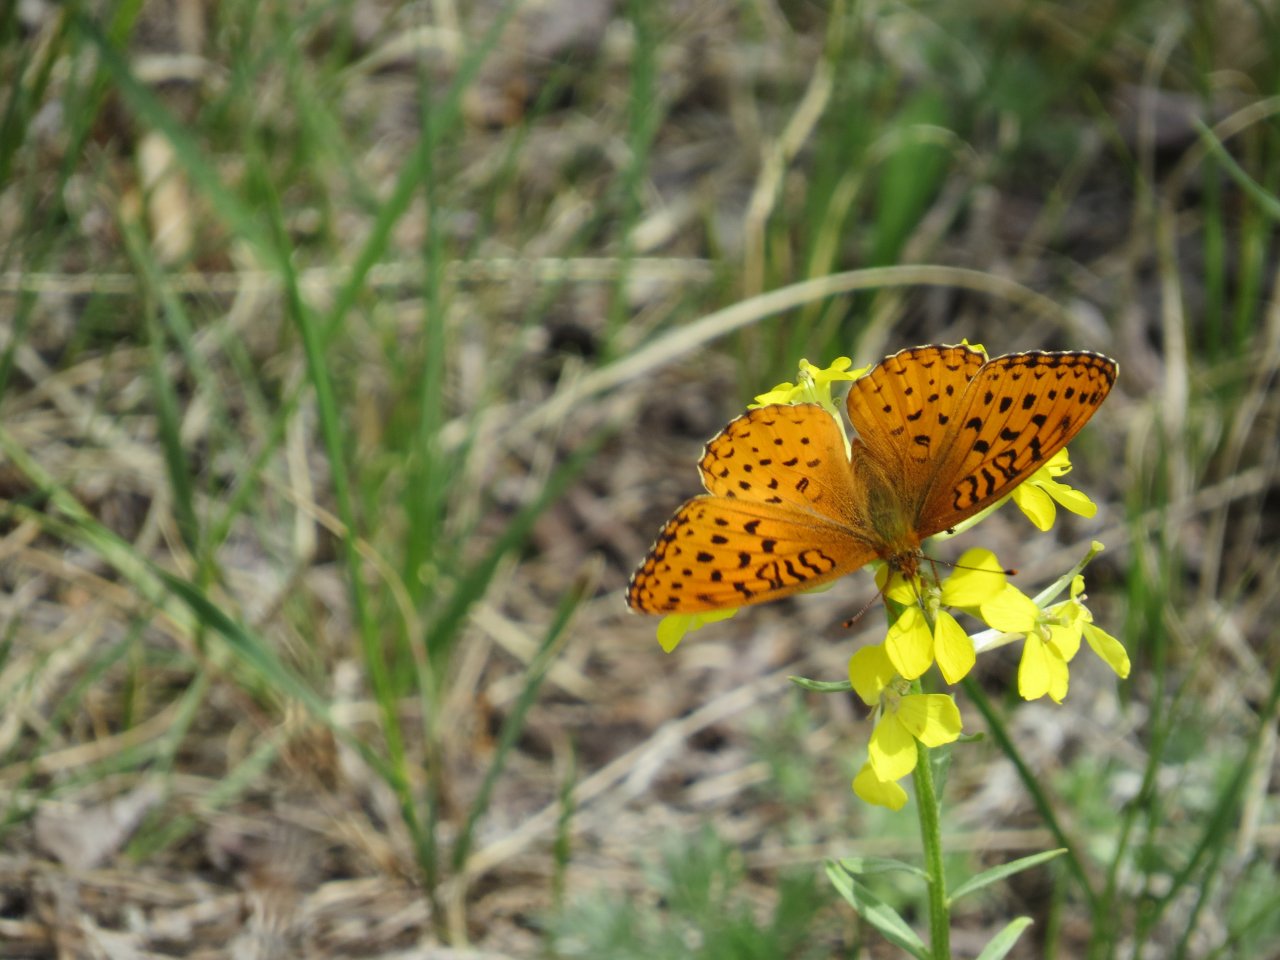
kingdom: Animalia
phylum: Arthropoda
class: Insecta
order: Lepidoptera
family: Nymphalidae
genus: Speyeria
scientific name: Speyeria aphrodite
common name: Aphrodite Fritillary
